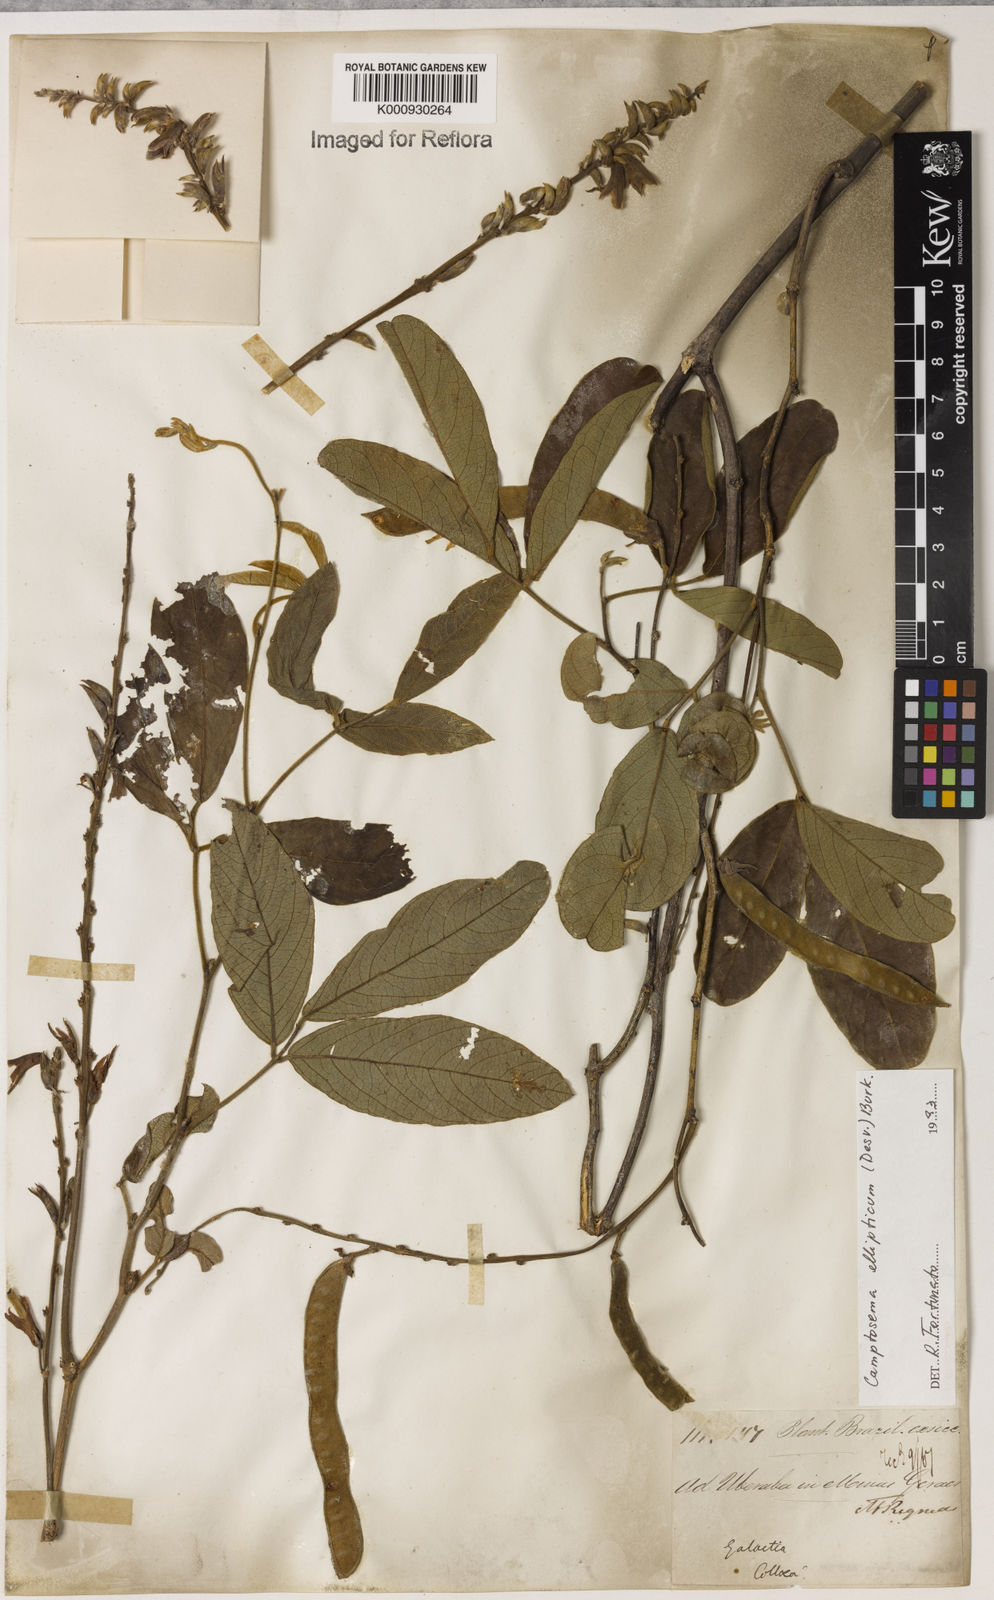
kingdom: Plantae
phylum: Tracheophyta
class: Magnoliopsida
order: Fabales
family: Fabaceae
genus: Camptosema
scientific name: Camptosema
